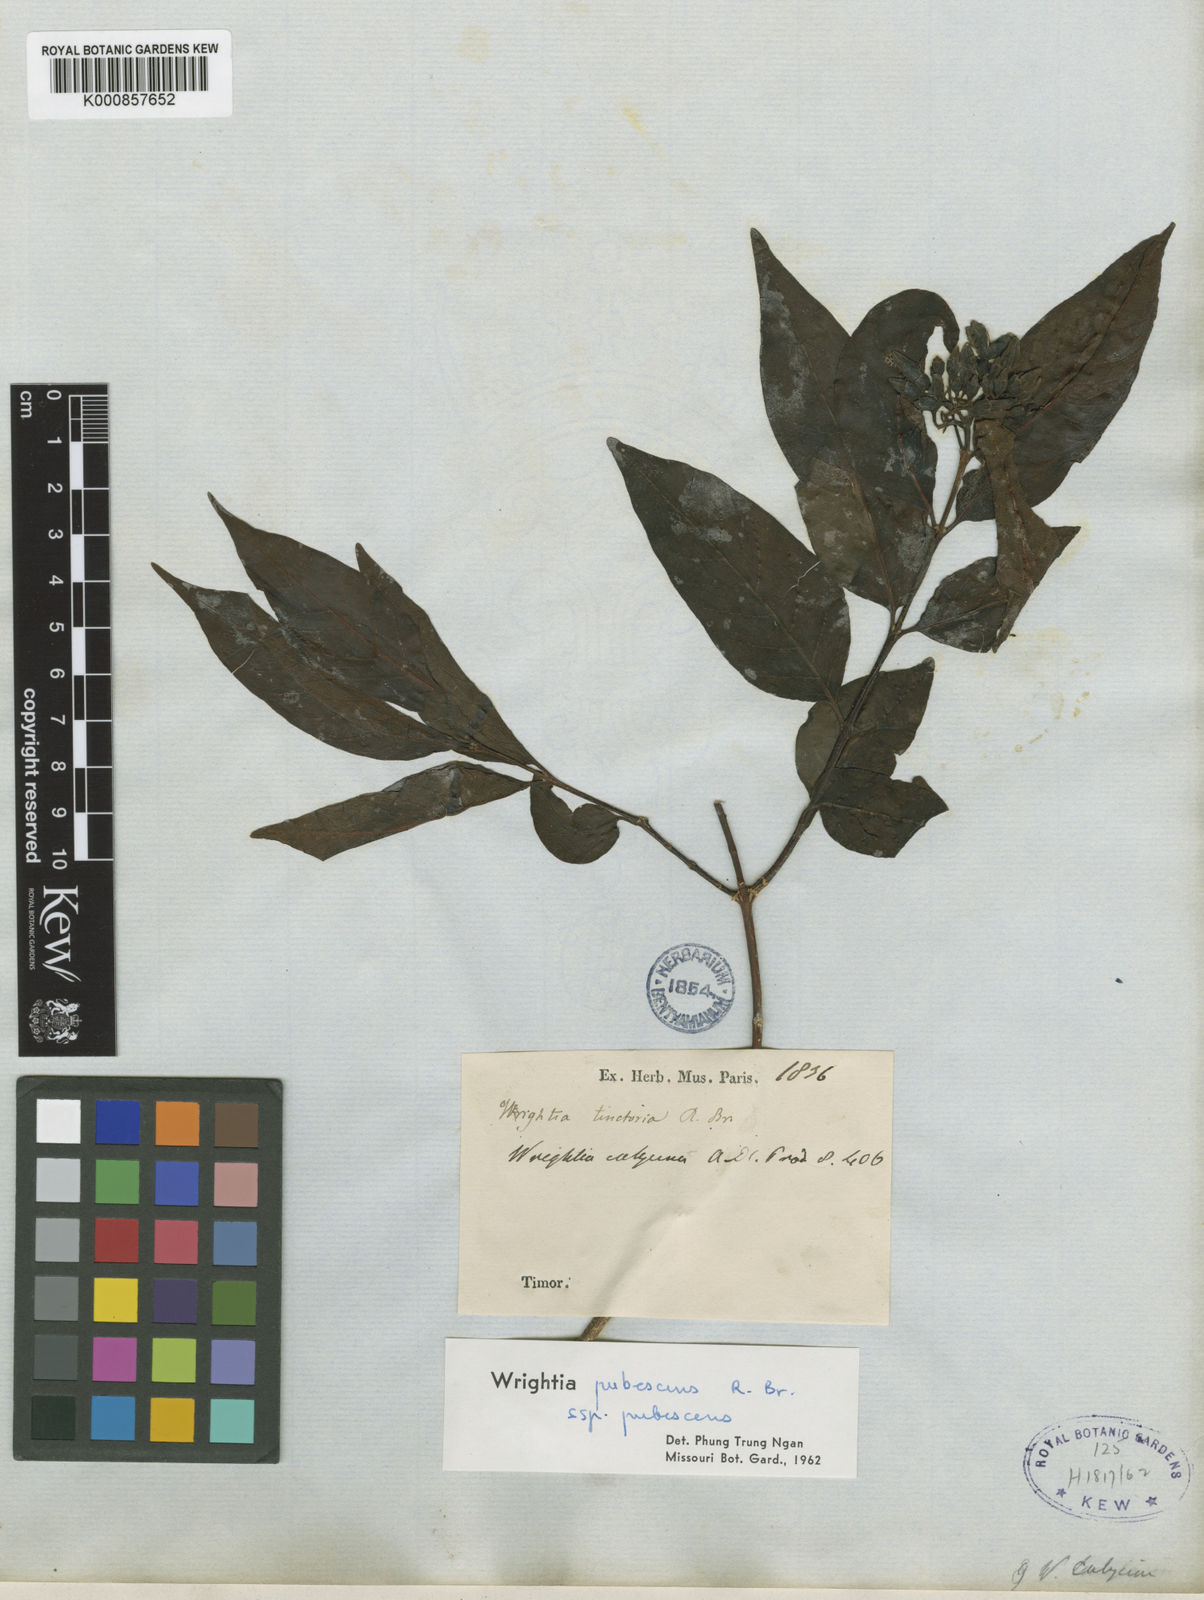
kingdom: Plantae
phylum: Tracheophyta
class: Magnoliopsida
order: Gentianales
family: Apocynaceae
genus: Wrightia
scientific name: Wrightia pubescens
